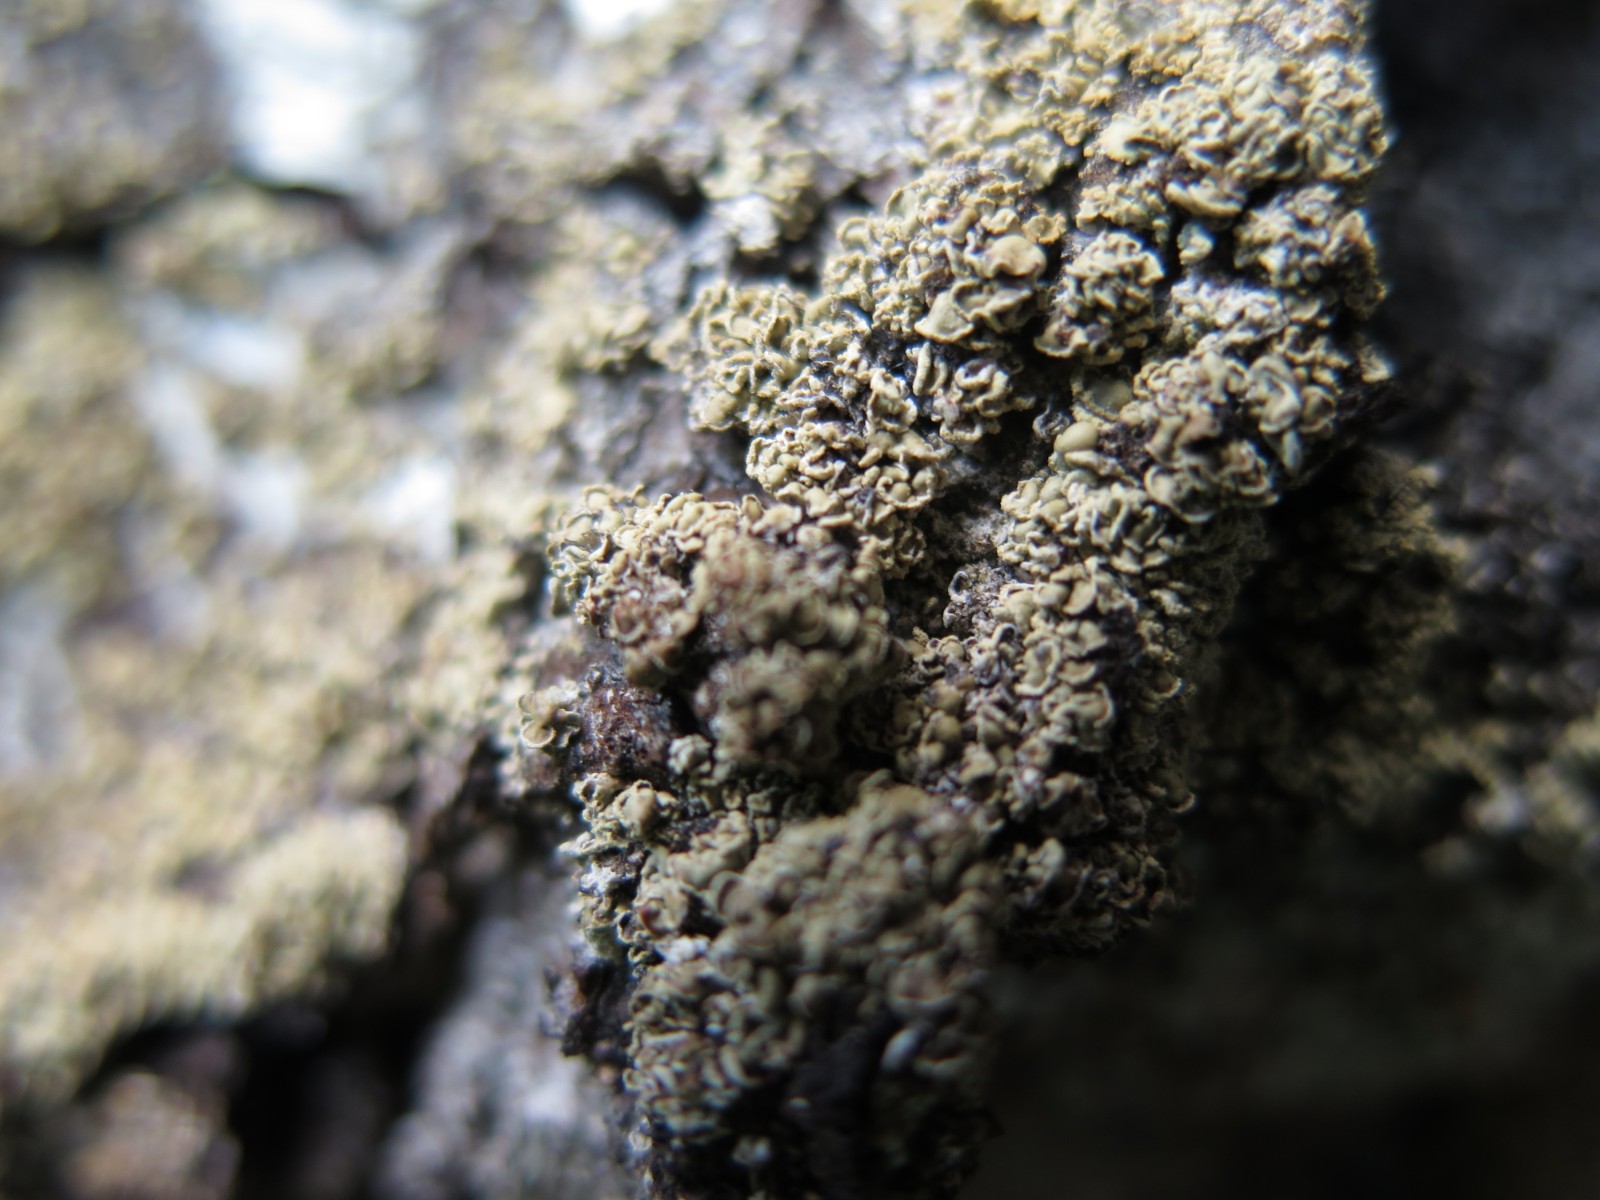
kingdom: Fungi
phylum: Ascomycota
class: Lecanoromycetes
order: Umbilicariales
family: Ophioparmaceae
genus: Hypocenomyce
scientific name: Hypocenomyce scalaris
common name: småskællet muslinglav
